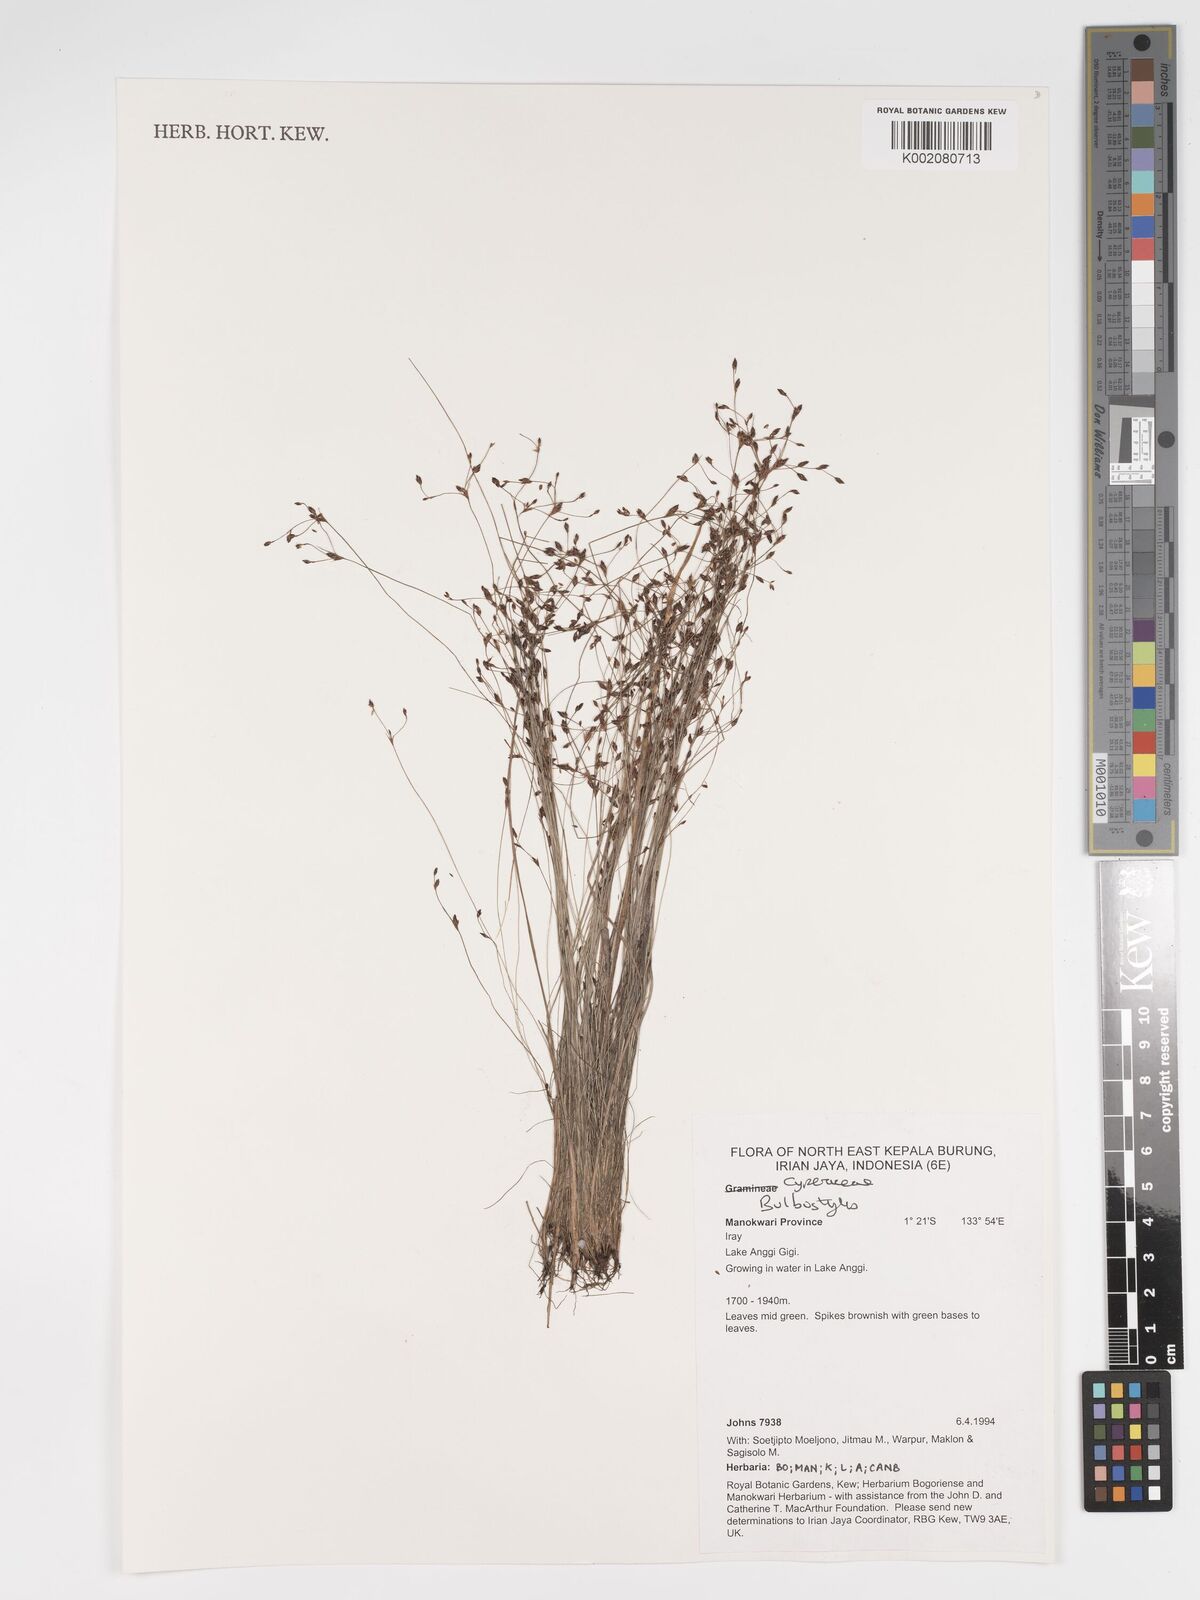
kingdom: Plantae
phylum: Tracheophyta
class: Magnoliopsida
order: Asterales
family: Asteraceae
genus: Bulbostylis
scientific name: Bulbostylis
